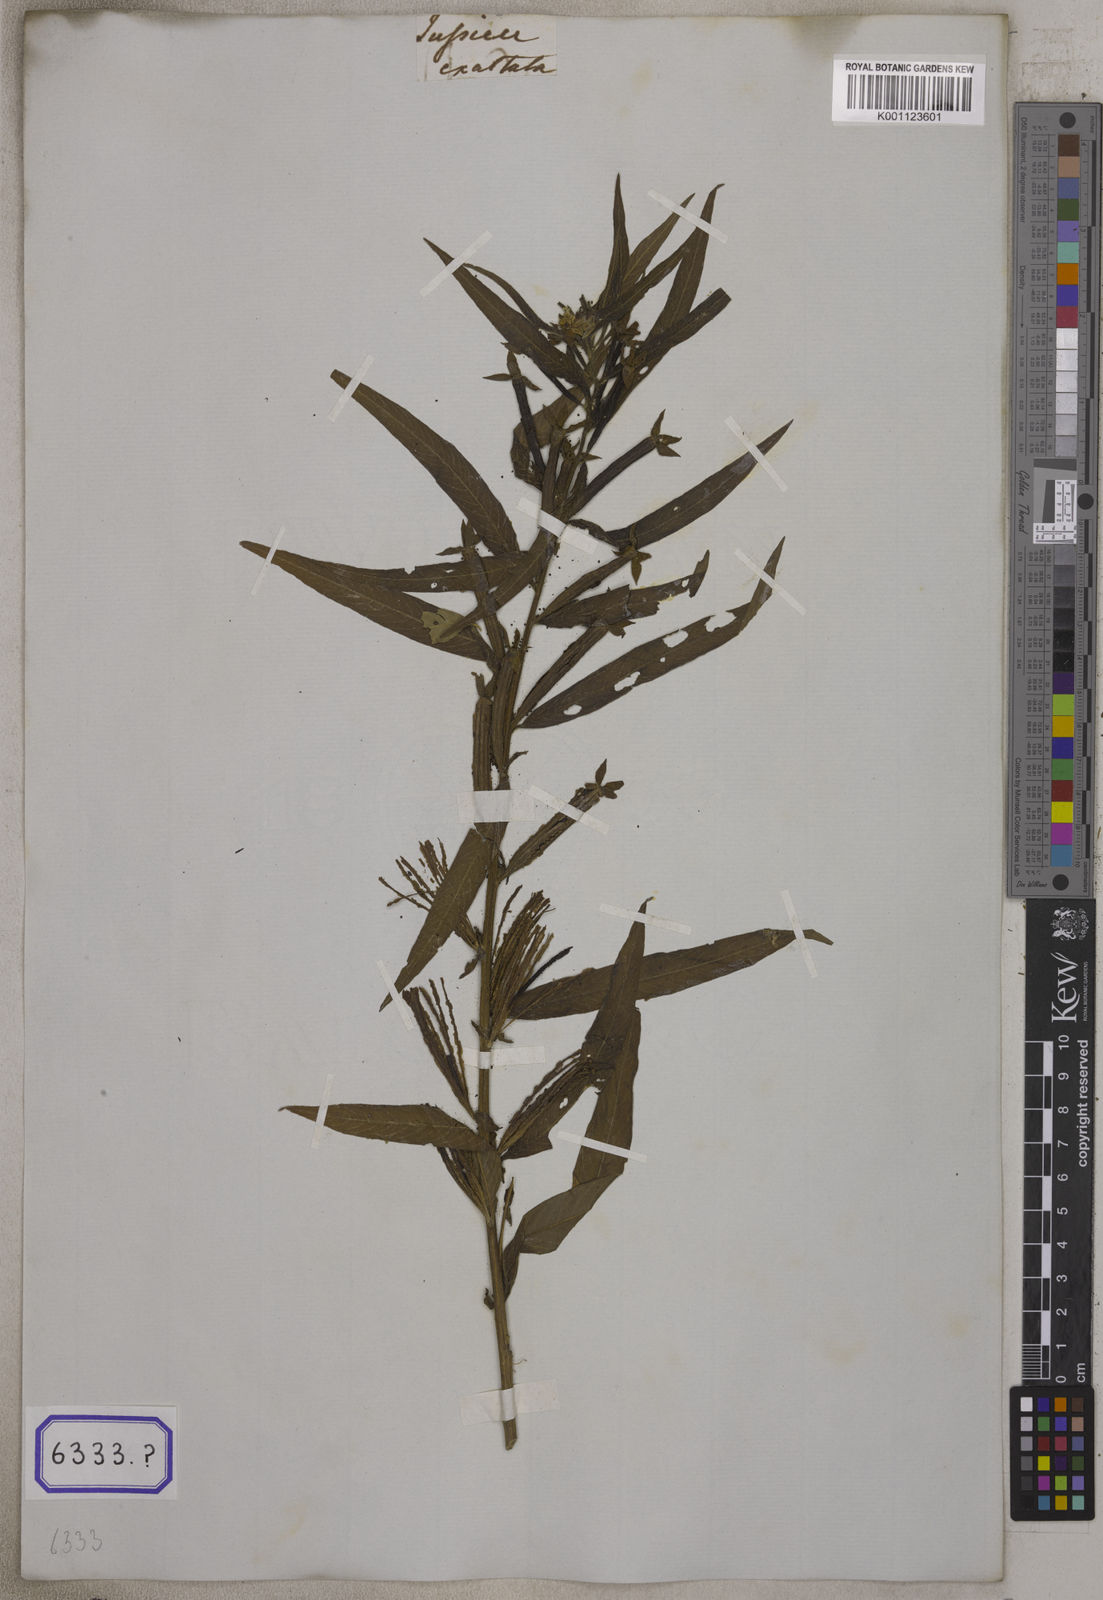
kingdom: Plantae
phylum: Tracheophyta
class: Magnoliopsida
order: Myrtales
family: Onagraceae
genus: Ludwigia
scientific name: Ludwigia octovalvis
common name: Water-primrose
